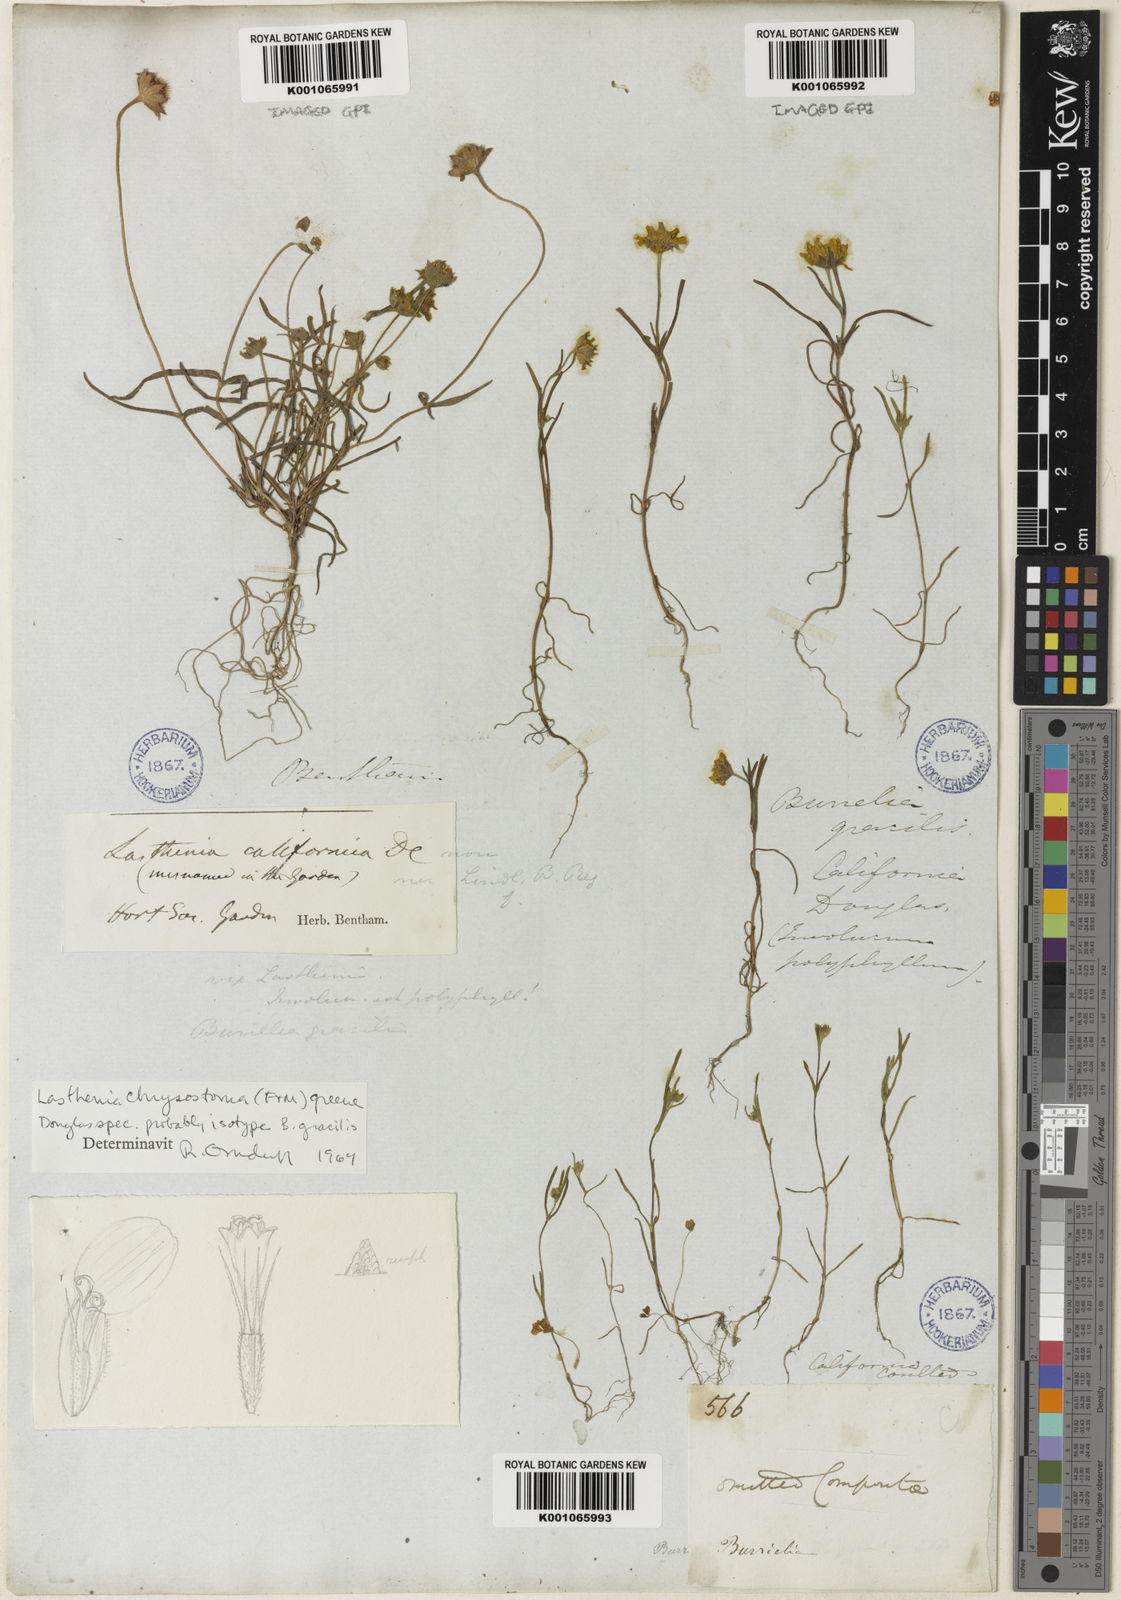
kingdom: Plantae
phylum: Tracheophyta
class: Magnoliopsida
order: Asterales
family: Asteraceae
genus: Lasthenia
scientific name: Lasthenia californica
